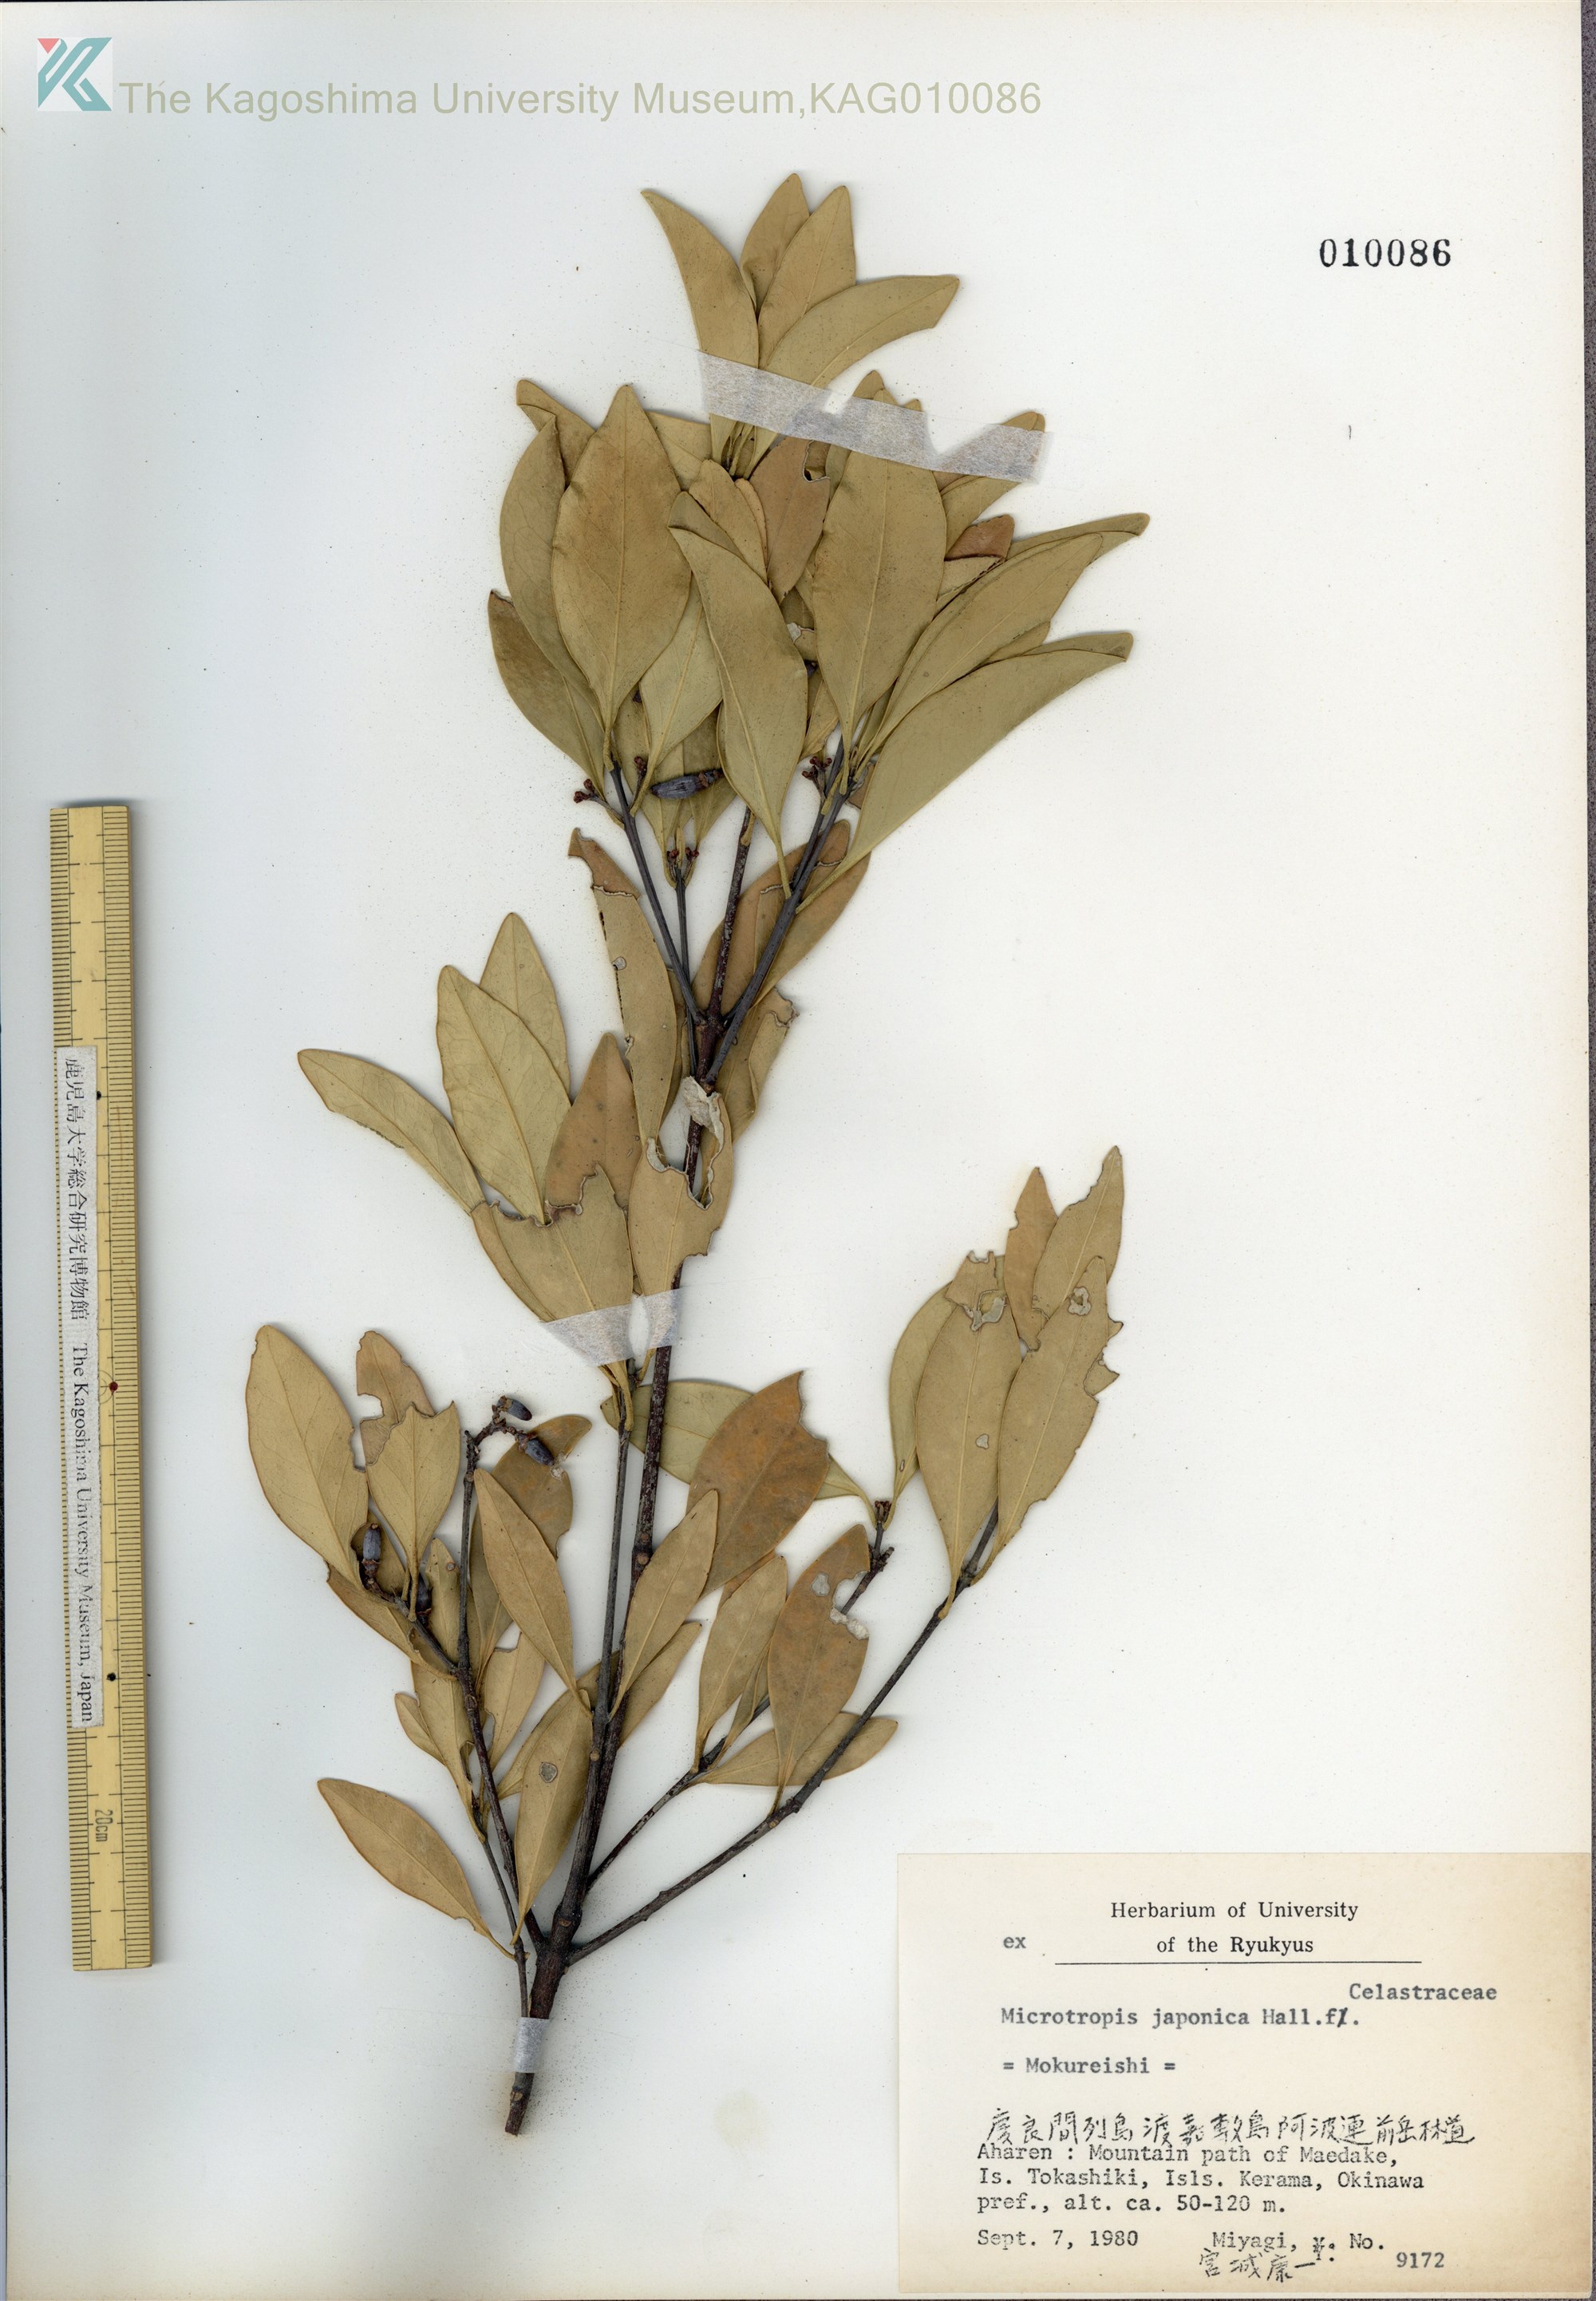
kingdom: Plantae
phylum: Tracheophyta
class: Magnoliopsida
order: Celastrales
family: Celastraceae
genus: Microtropis
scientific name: Microtropis japonica
